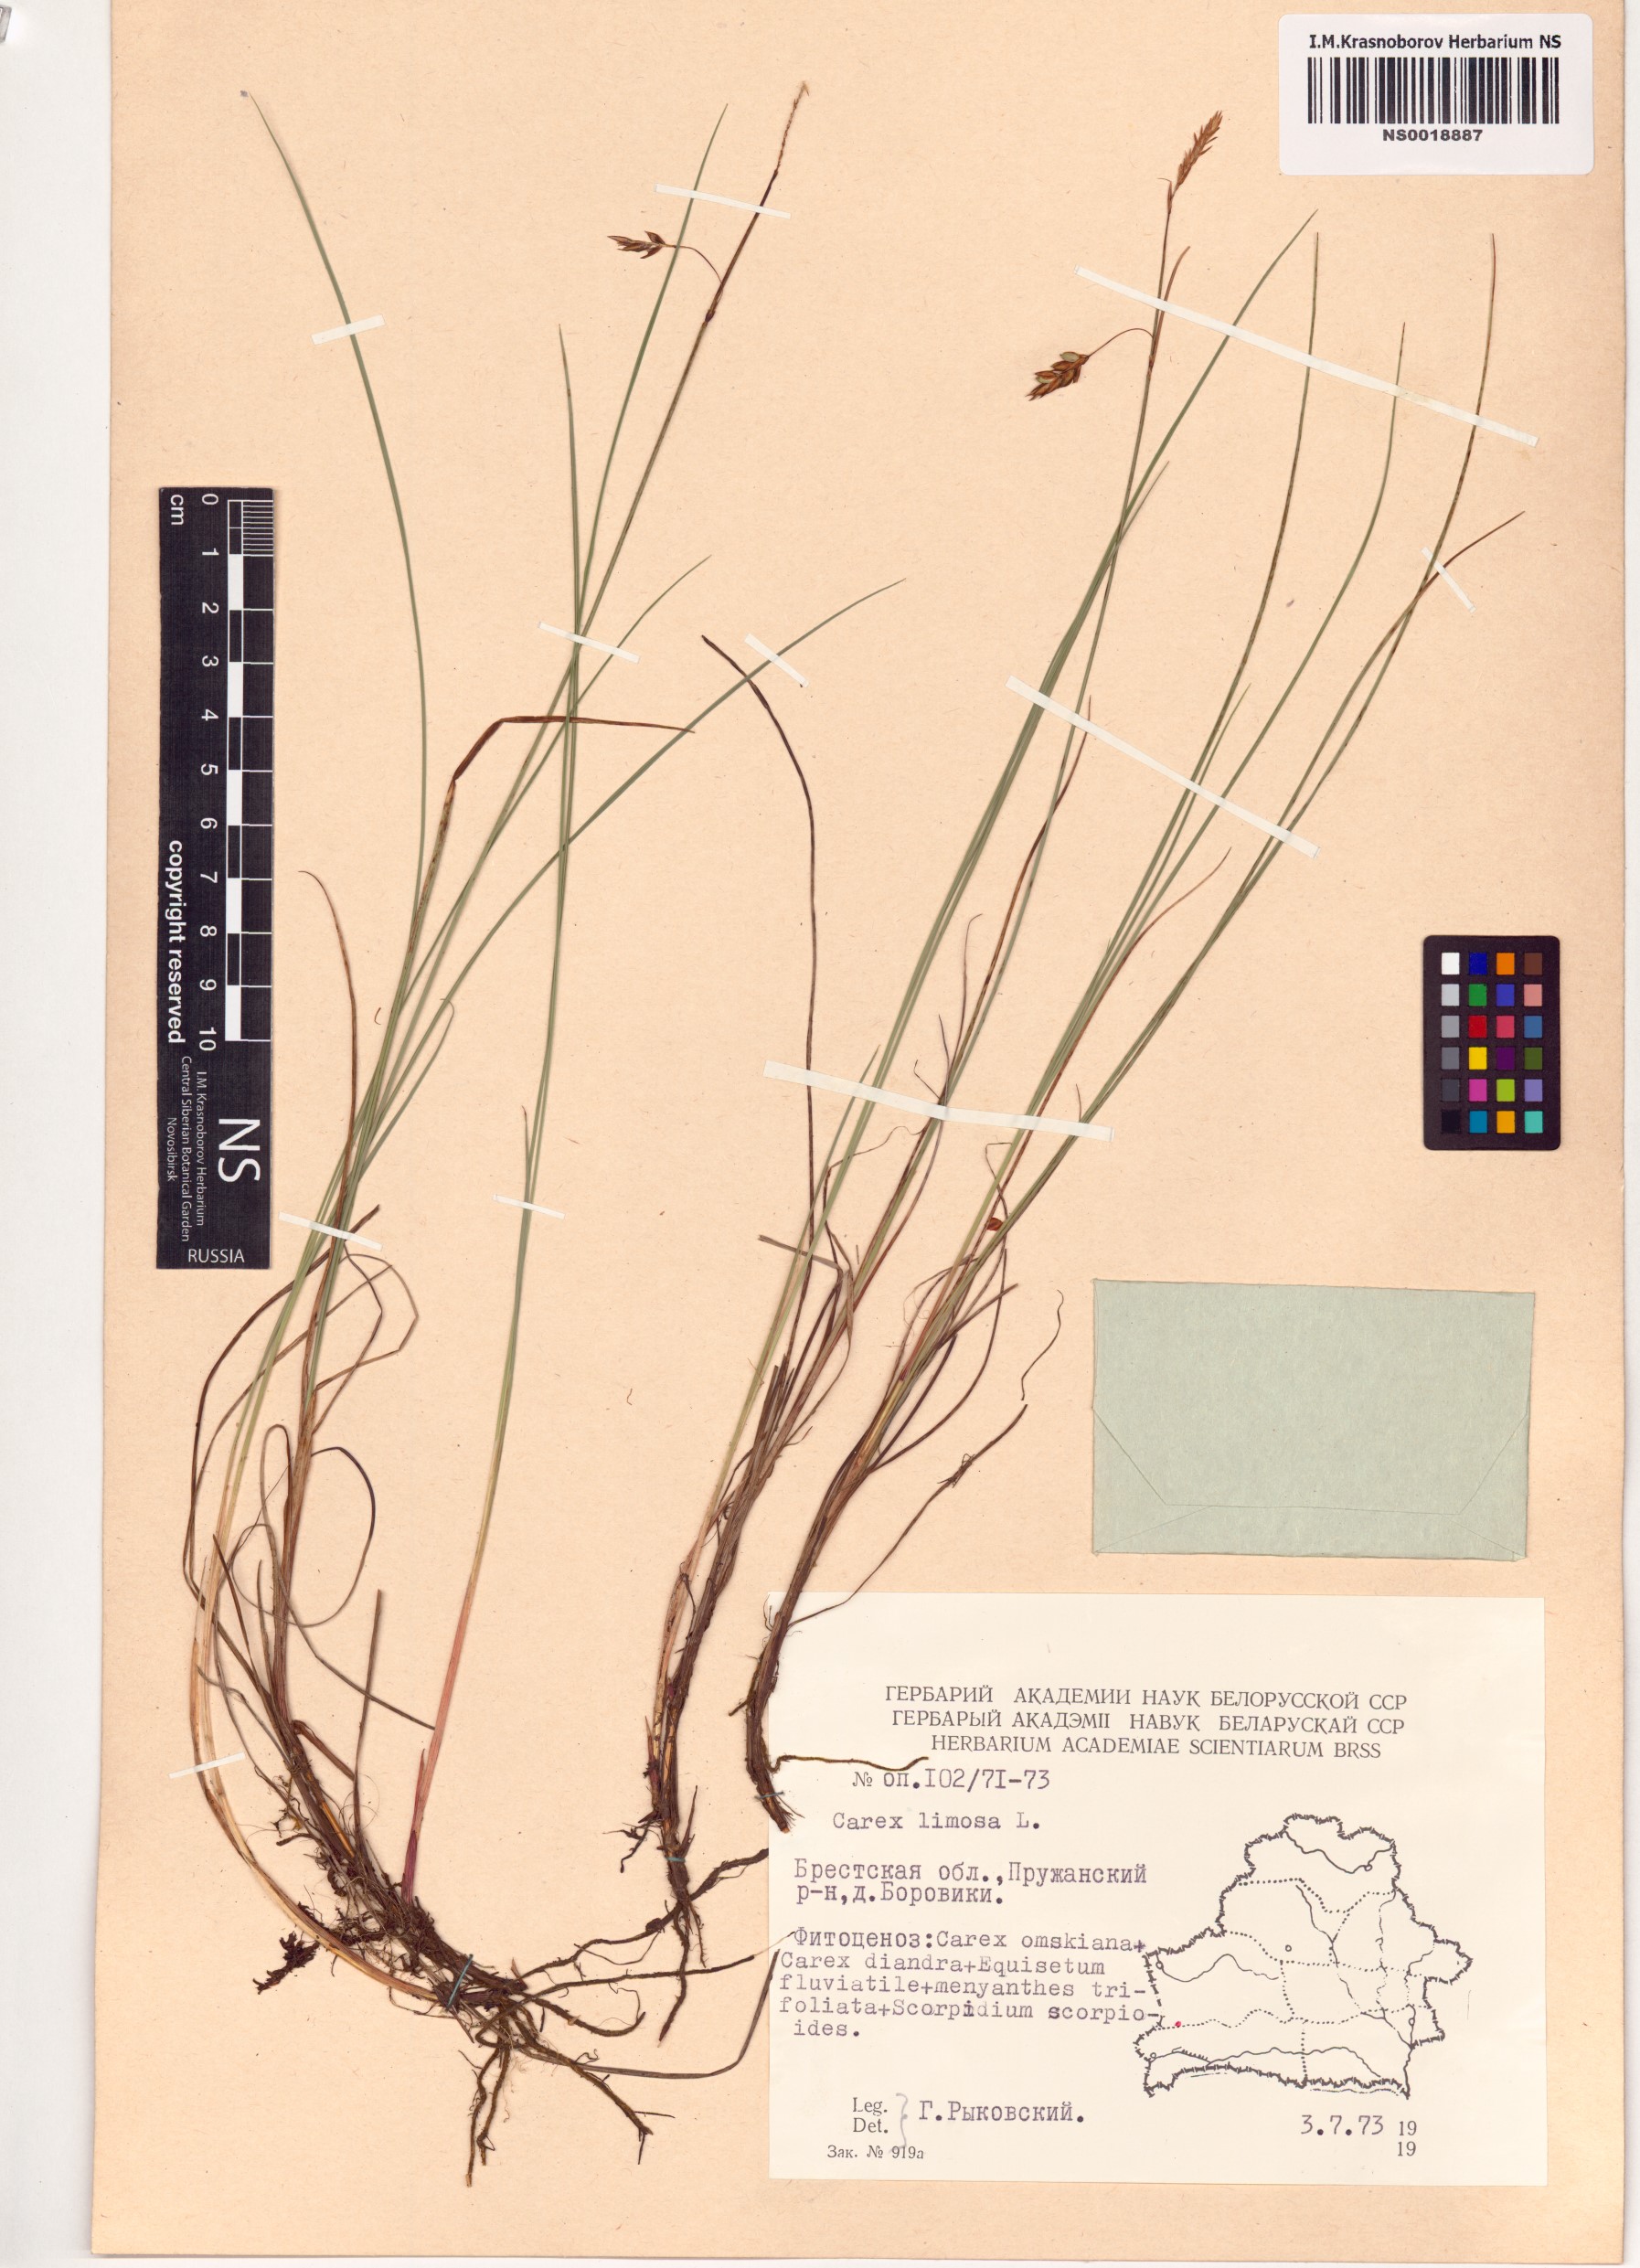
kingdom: Plantae
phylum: Tracheophyta
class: Liliopsida
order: Poales
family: Cyperaceae
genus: Carex
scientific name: Carex limosa
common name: Bog sedge
